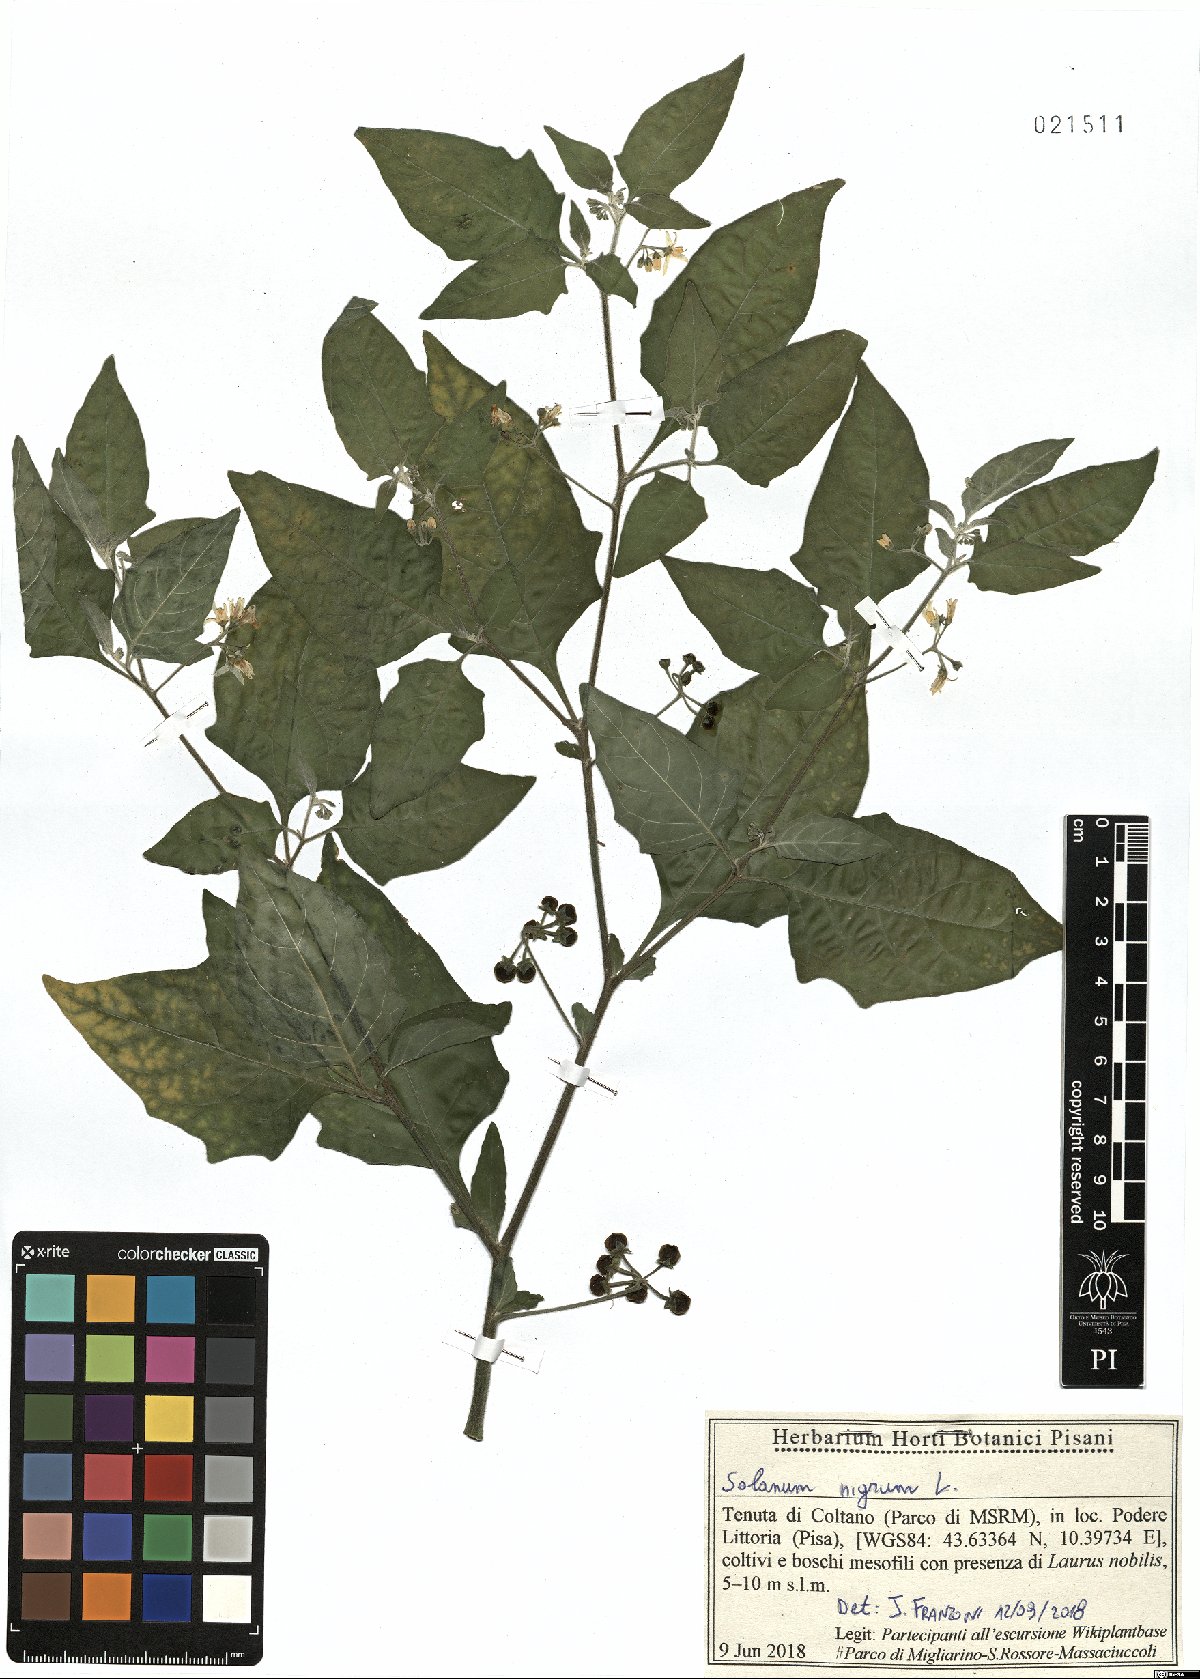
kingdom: Plantae
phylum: Tracheophyta
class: Magnoliopsida
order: Solanales
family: Solanaceae
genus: Solanum
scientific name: Solanum nigrum
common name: Black nightshade
